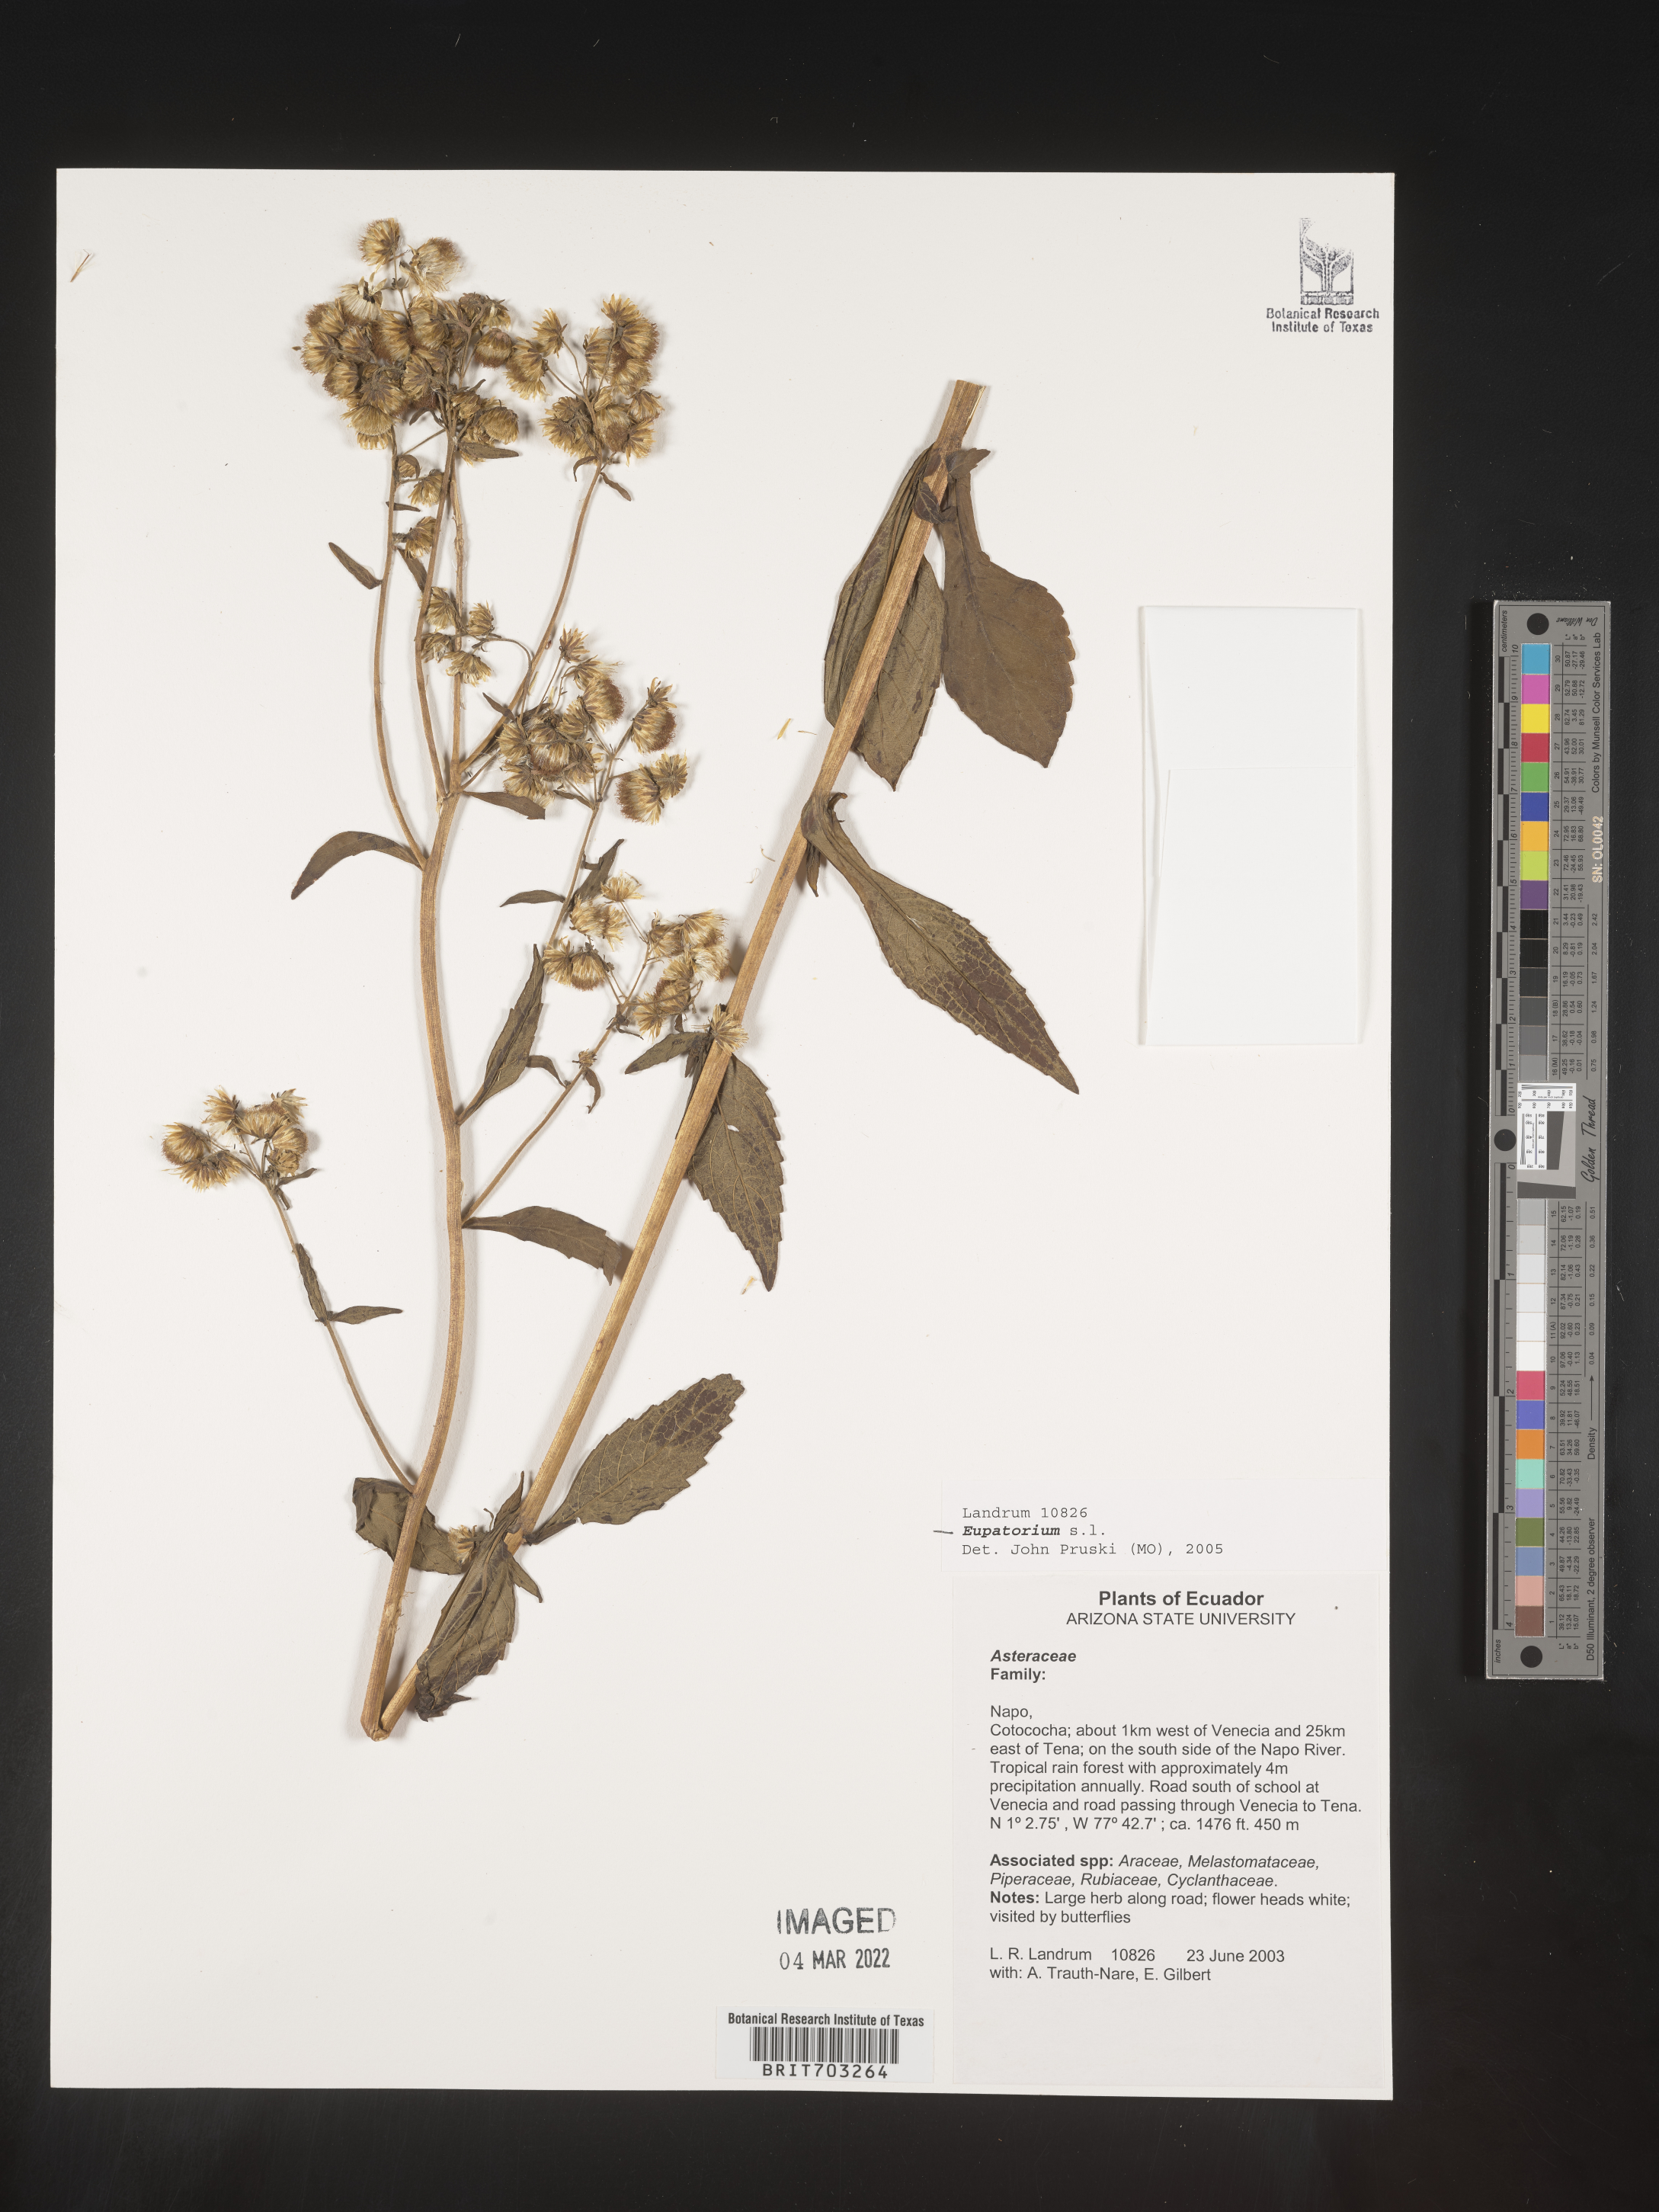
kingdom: Plantae
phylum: Tracheophyta
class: Magnoliopsida
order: Asterales
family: Asteraceae
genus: Eupatorium
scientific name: Eupatorium
